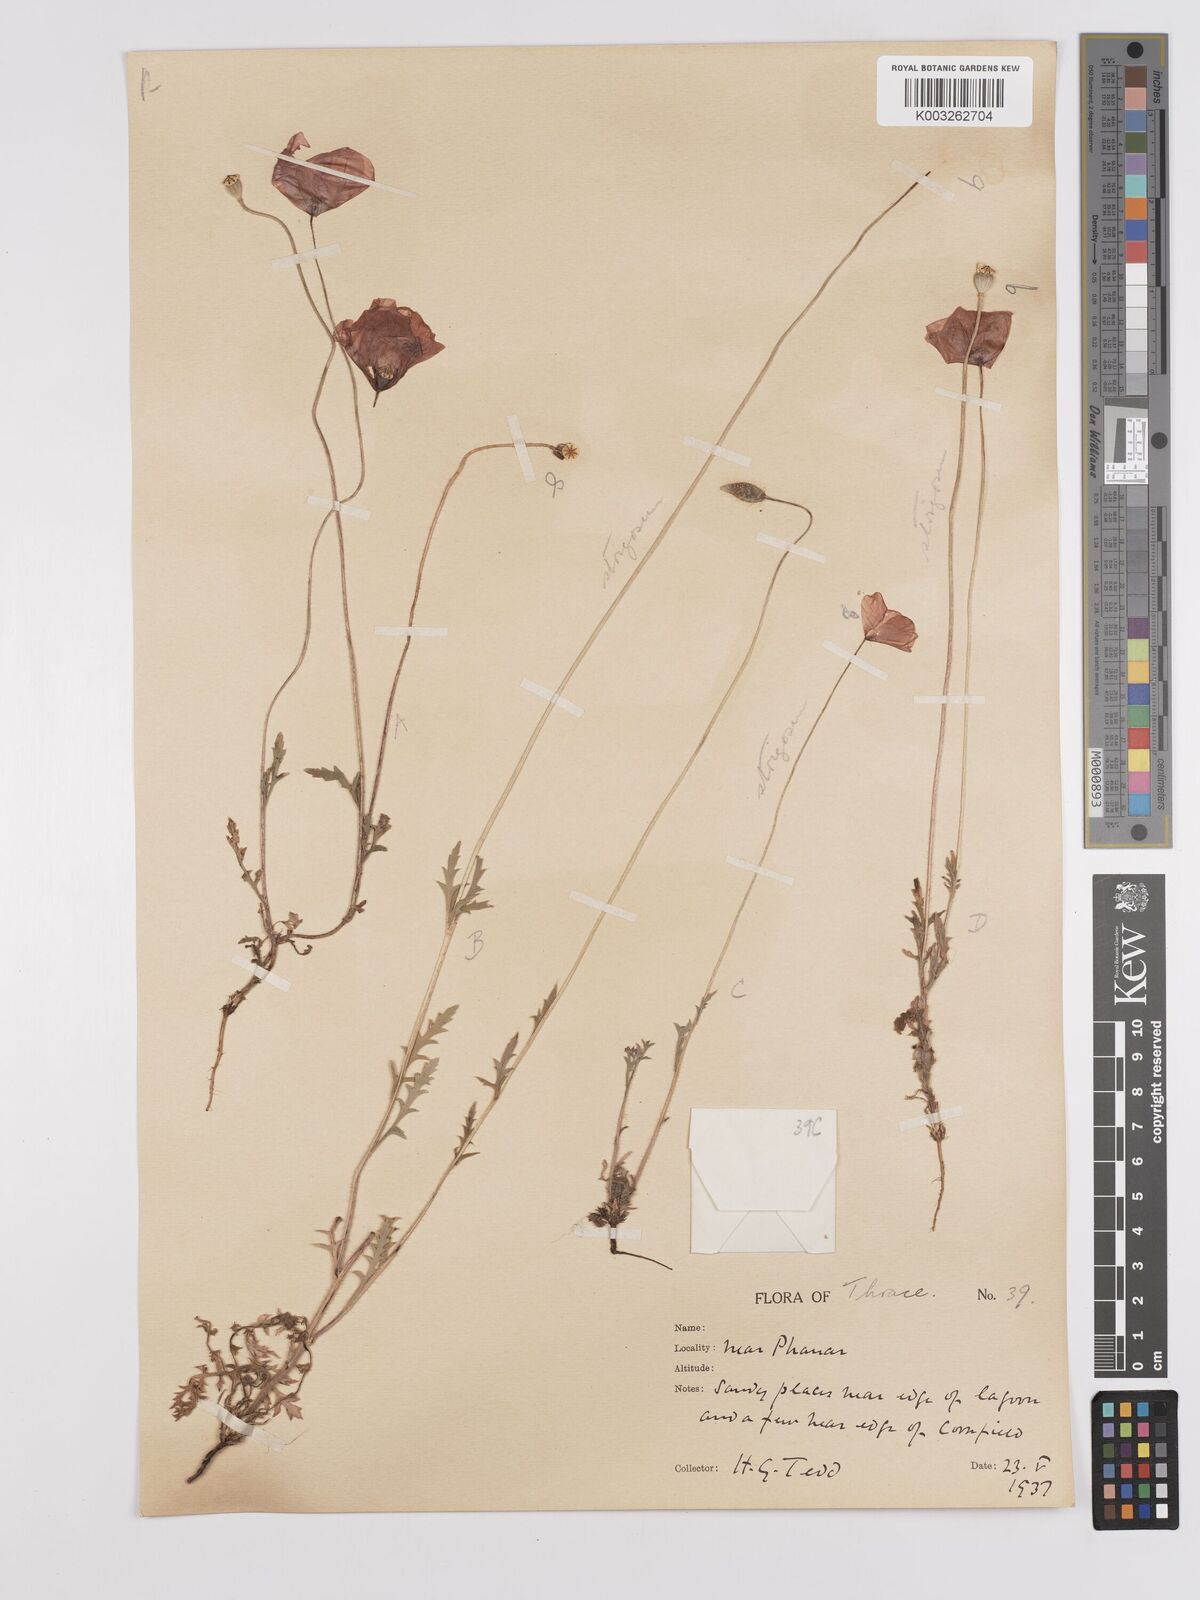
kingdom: Plantae
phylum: Tracheophyta
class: Magnoliopsida
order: Ranunculales
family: Papaveraceae
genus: Papaver
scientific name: Papaver
